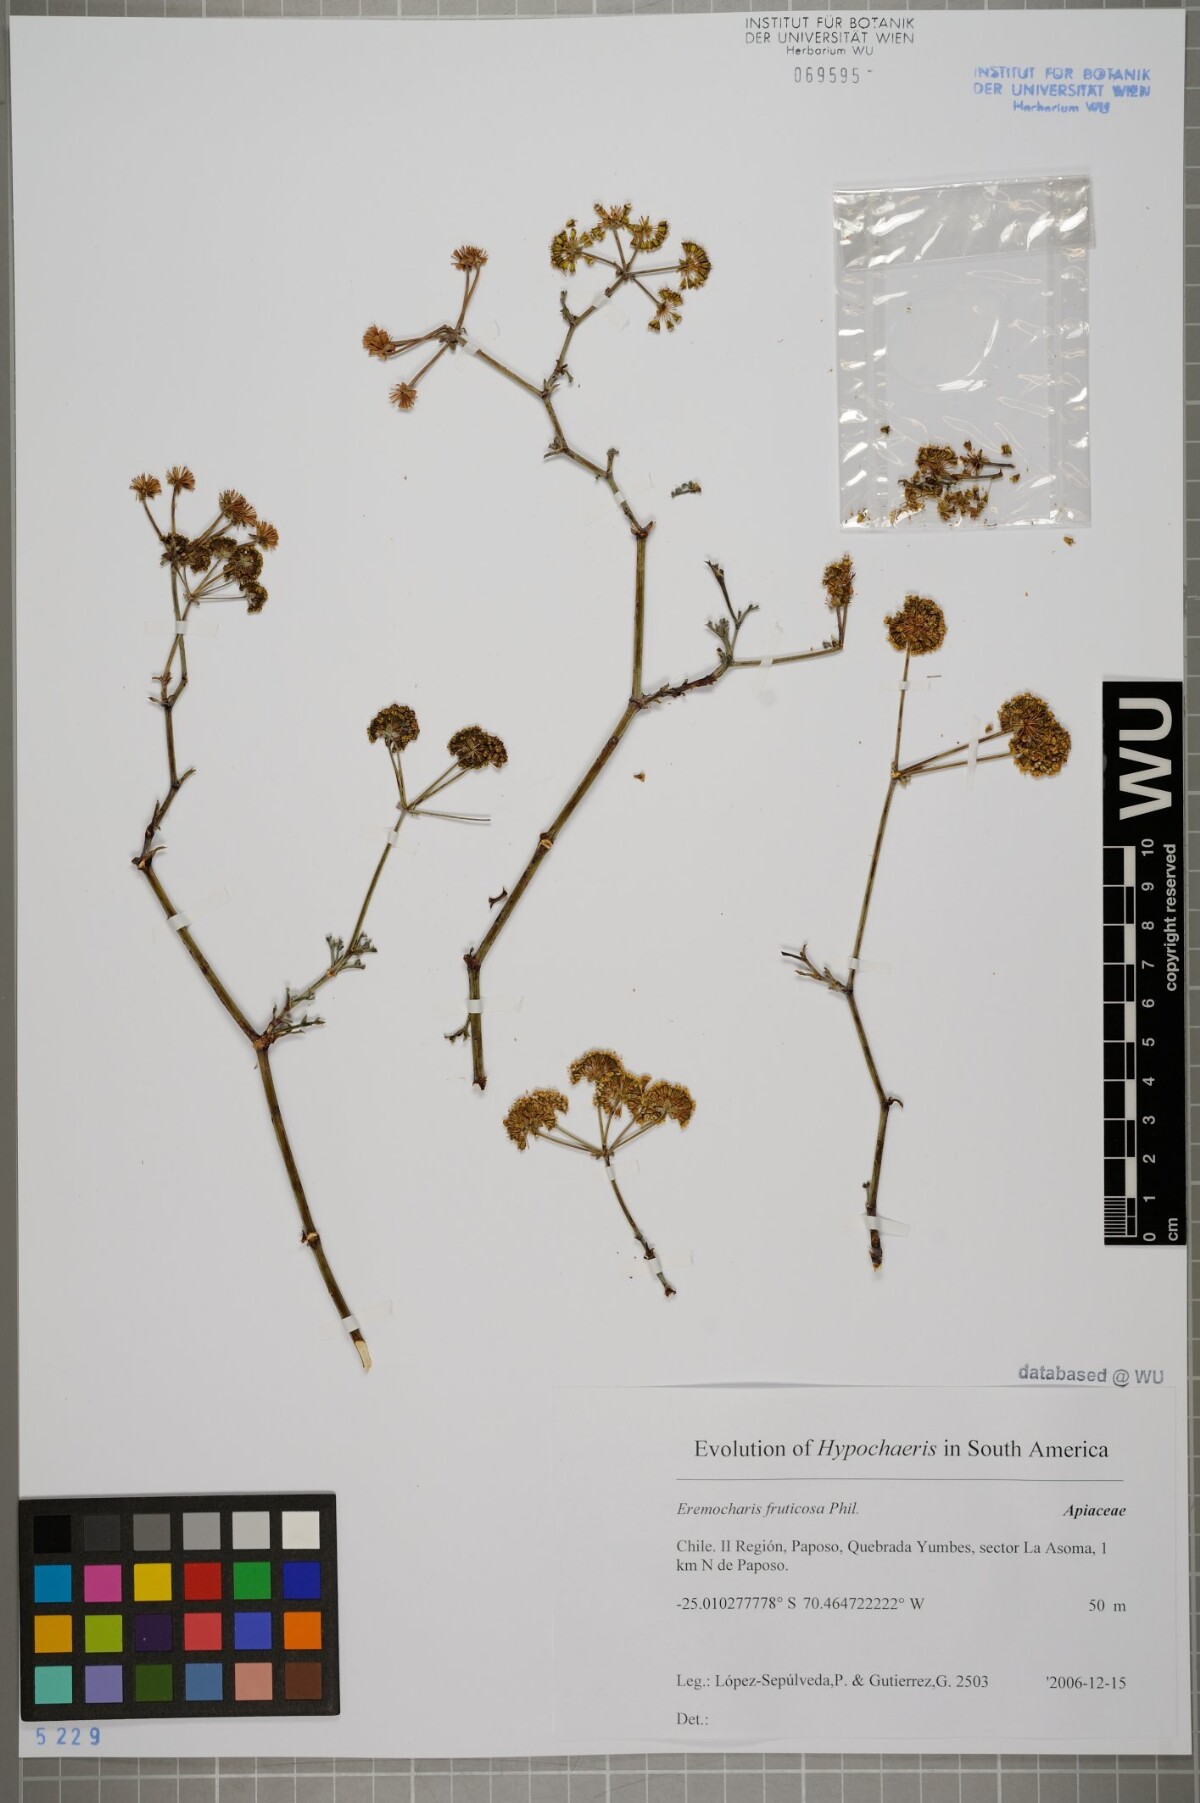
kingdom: Plantae
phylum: Tracheophyta
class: Magnoliopsida
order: Apiales
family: Apiaceae
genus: Eremocharis
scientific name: Eremocharis fruticosa
